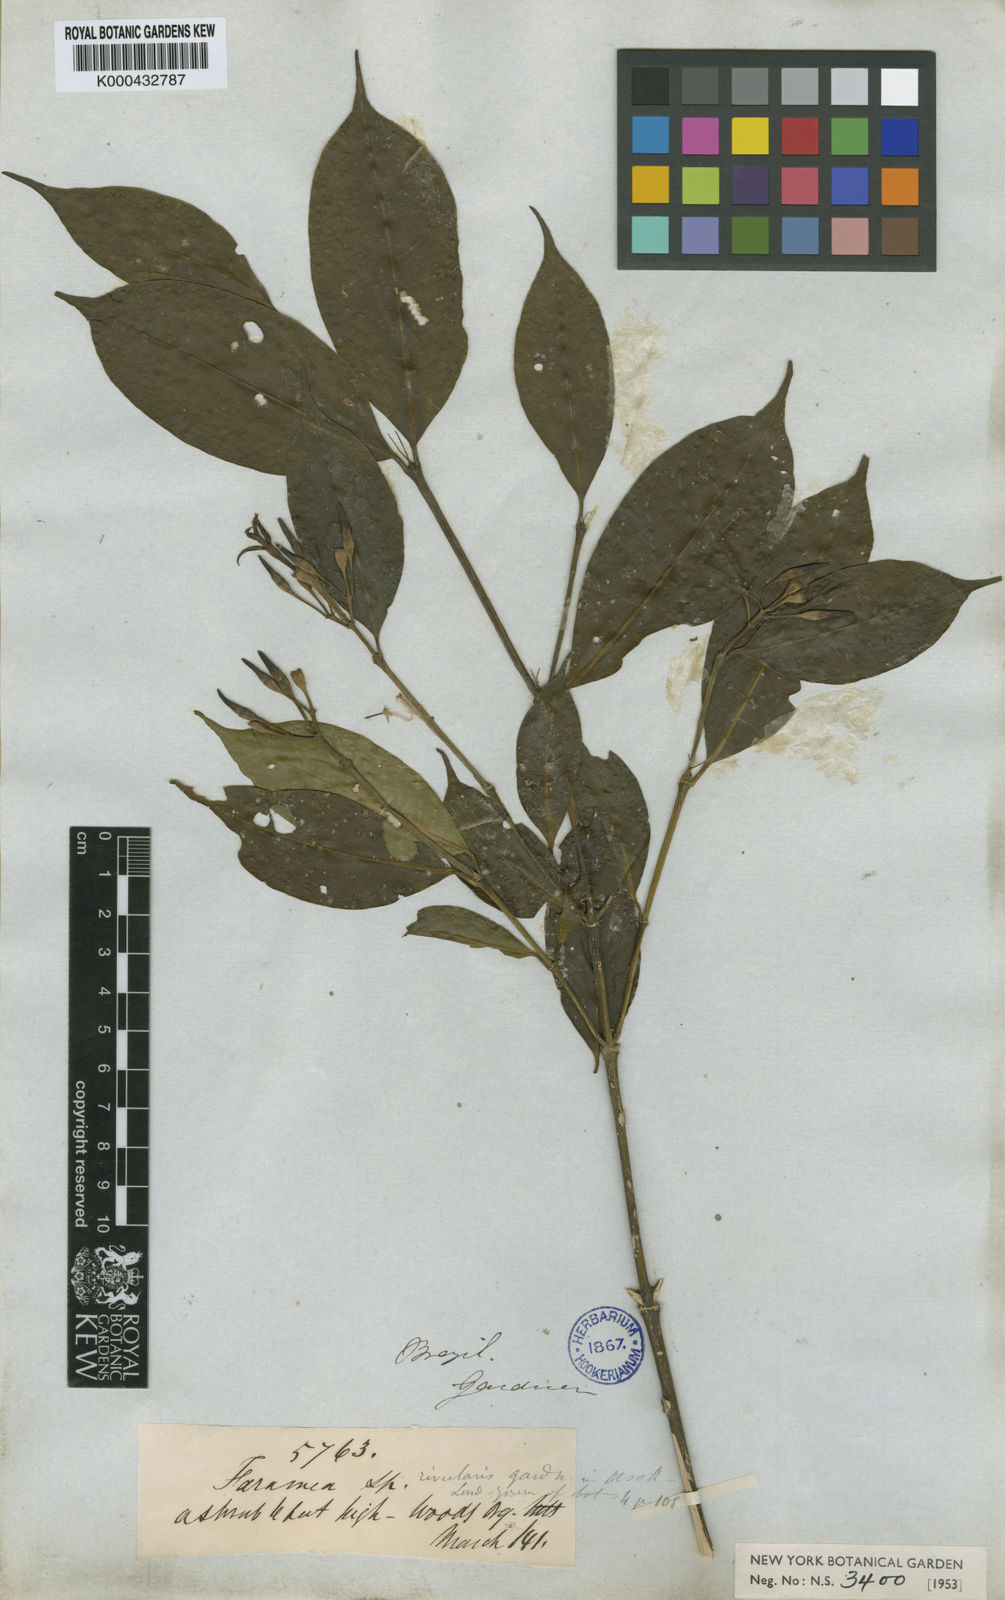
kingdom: Plantae
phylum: Tracheophyta
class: Magnoliopsida
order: Gentianales
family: Rubiaceae
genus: Faramea
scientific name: Faramea caudata
